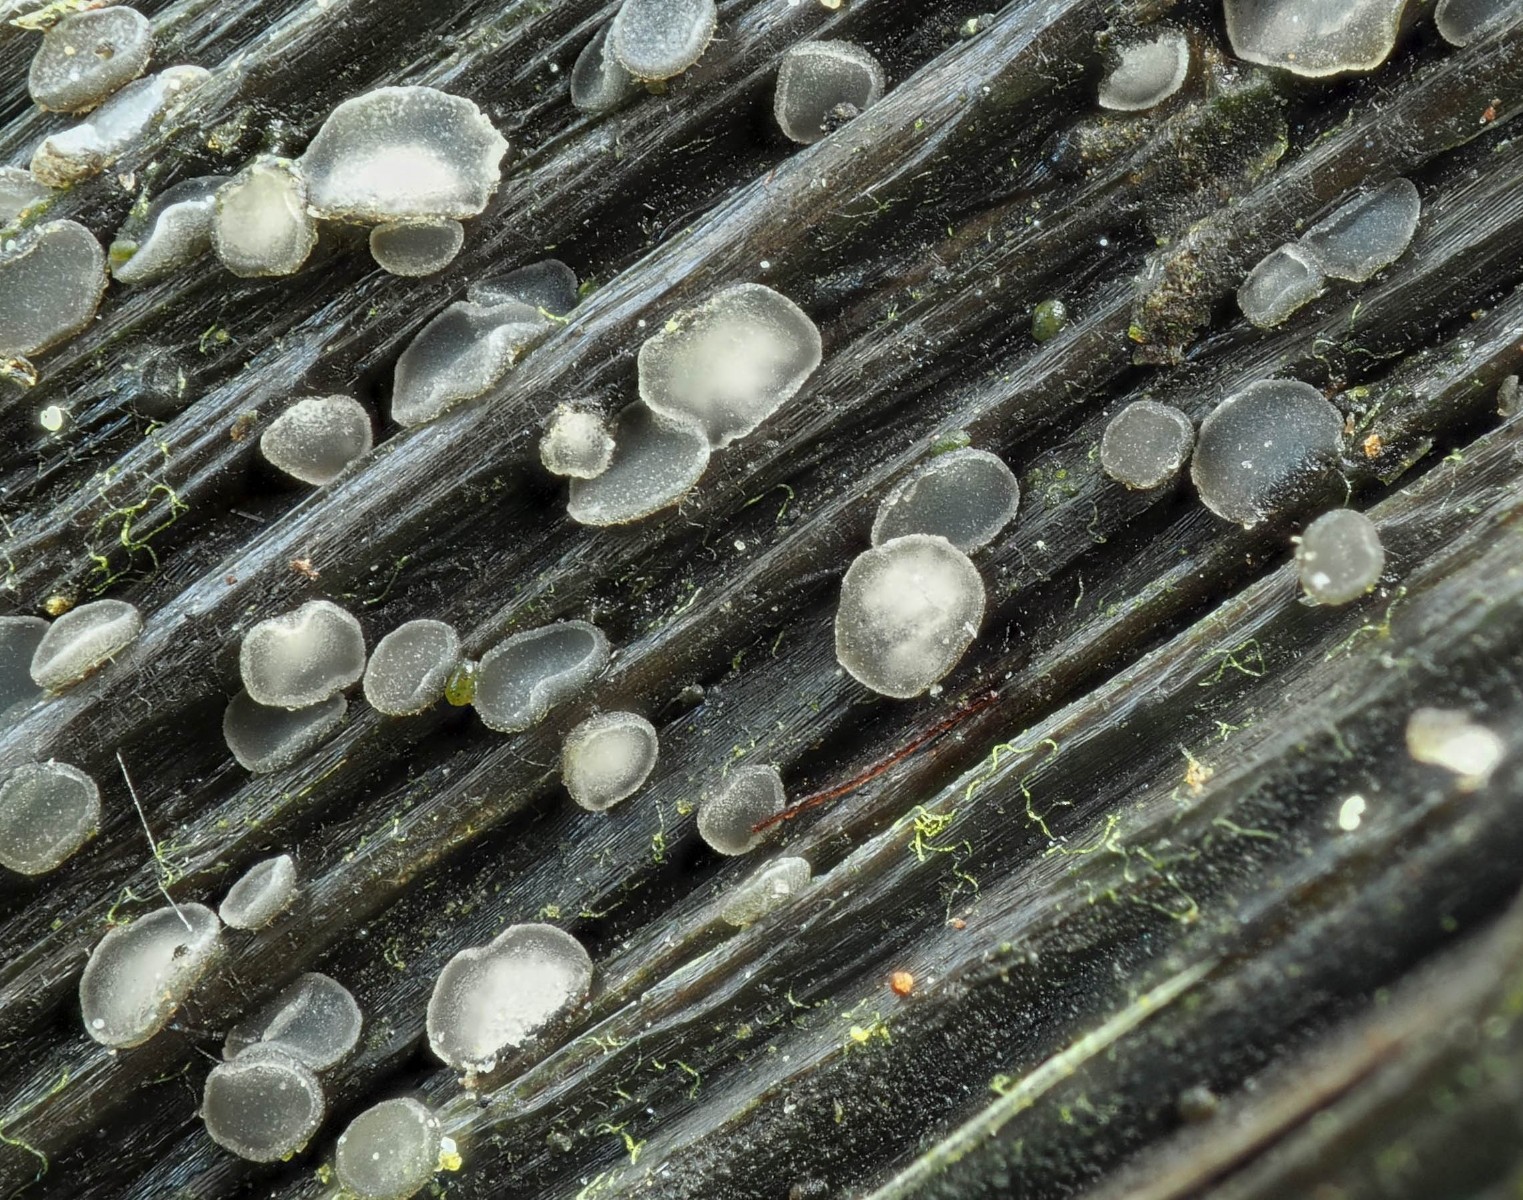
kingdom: Fungi
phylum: Ascomycota
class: Leotiomycetes
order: Helotiales
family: Dermateaceae
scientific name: Dermateaceae
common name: gråskivefamilien
